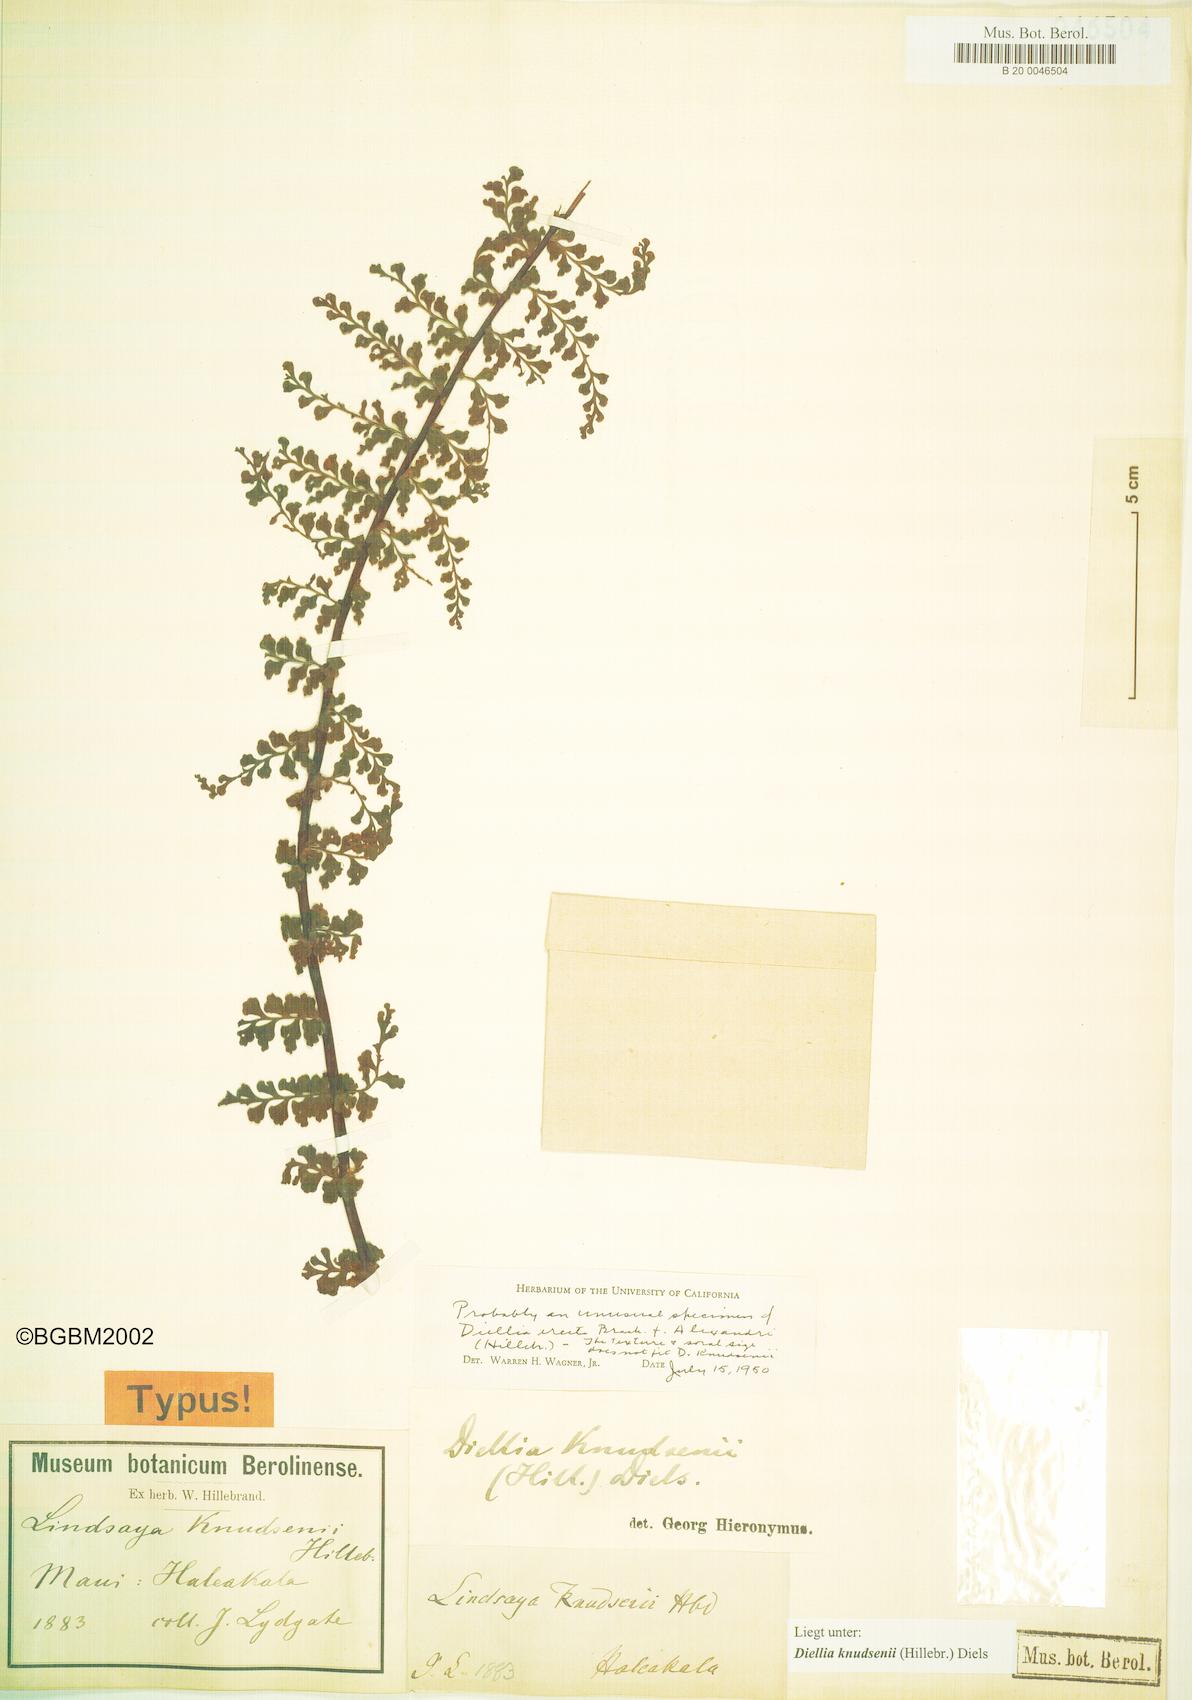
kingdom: Plantae
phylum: Tracheophyta
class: Polypodiopsida
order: Polypodiales
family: Aspleniaceae
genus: Asplenium
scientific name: Asplenium dielerectum
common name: Erect island spleenwort
